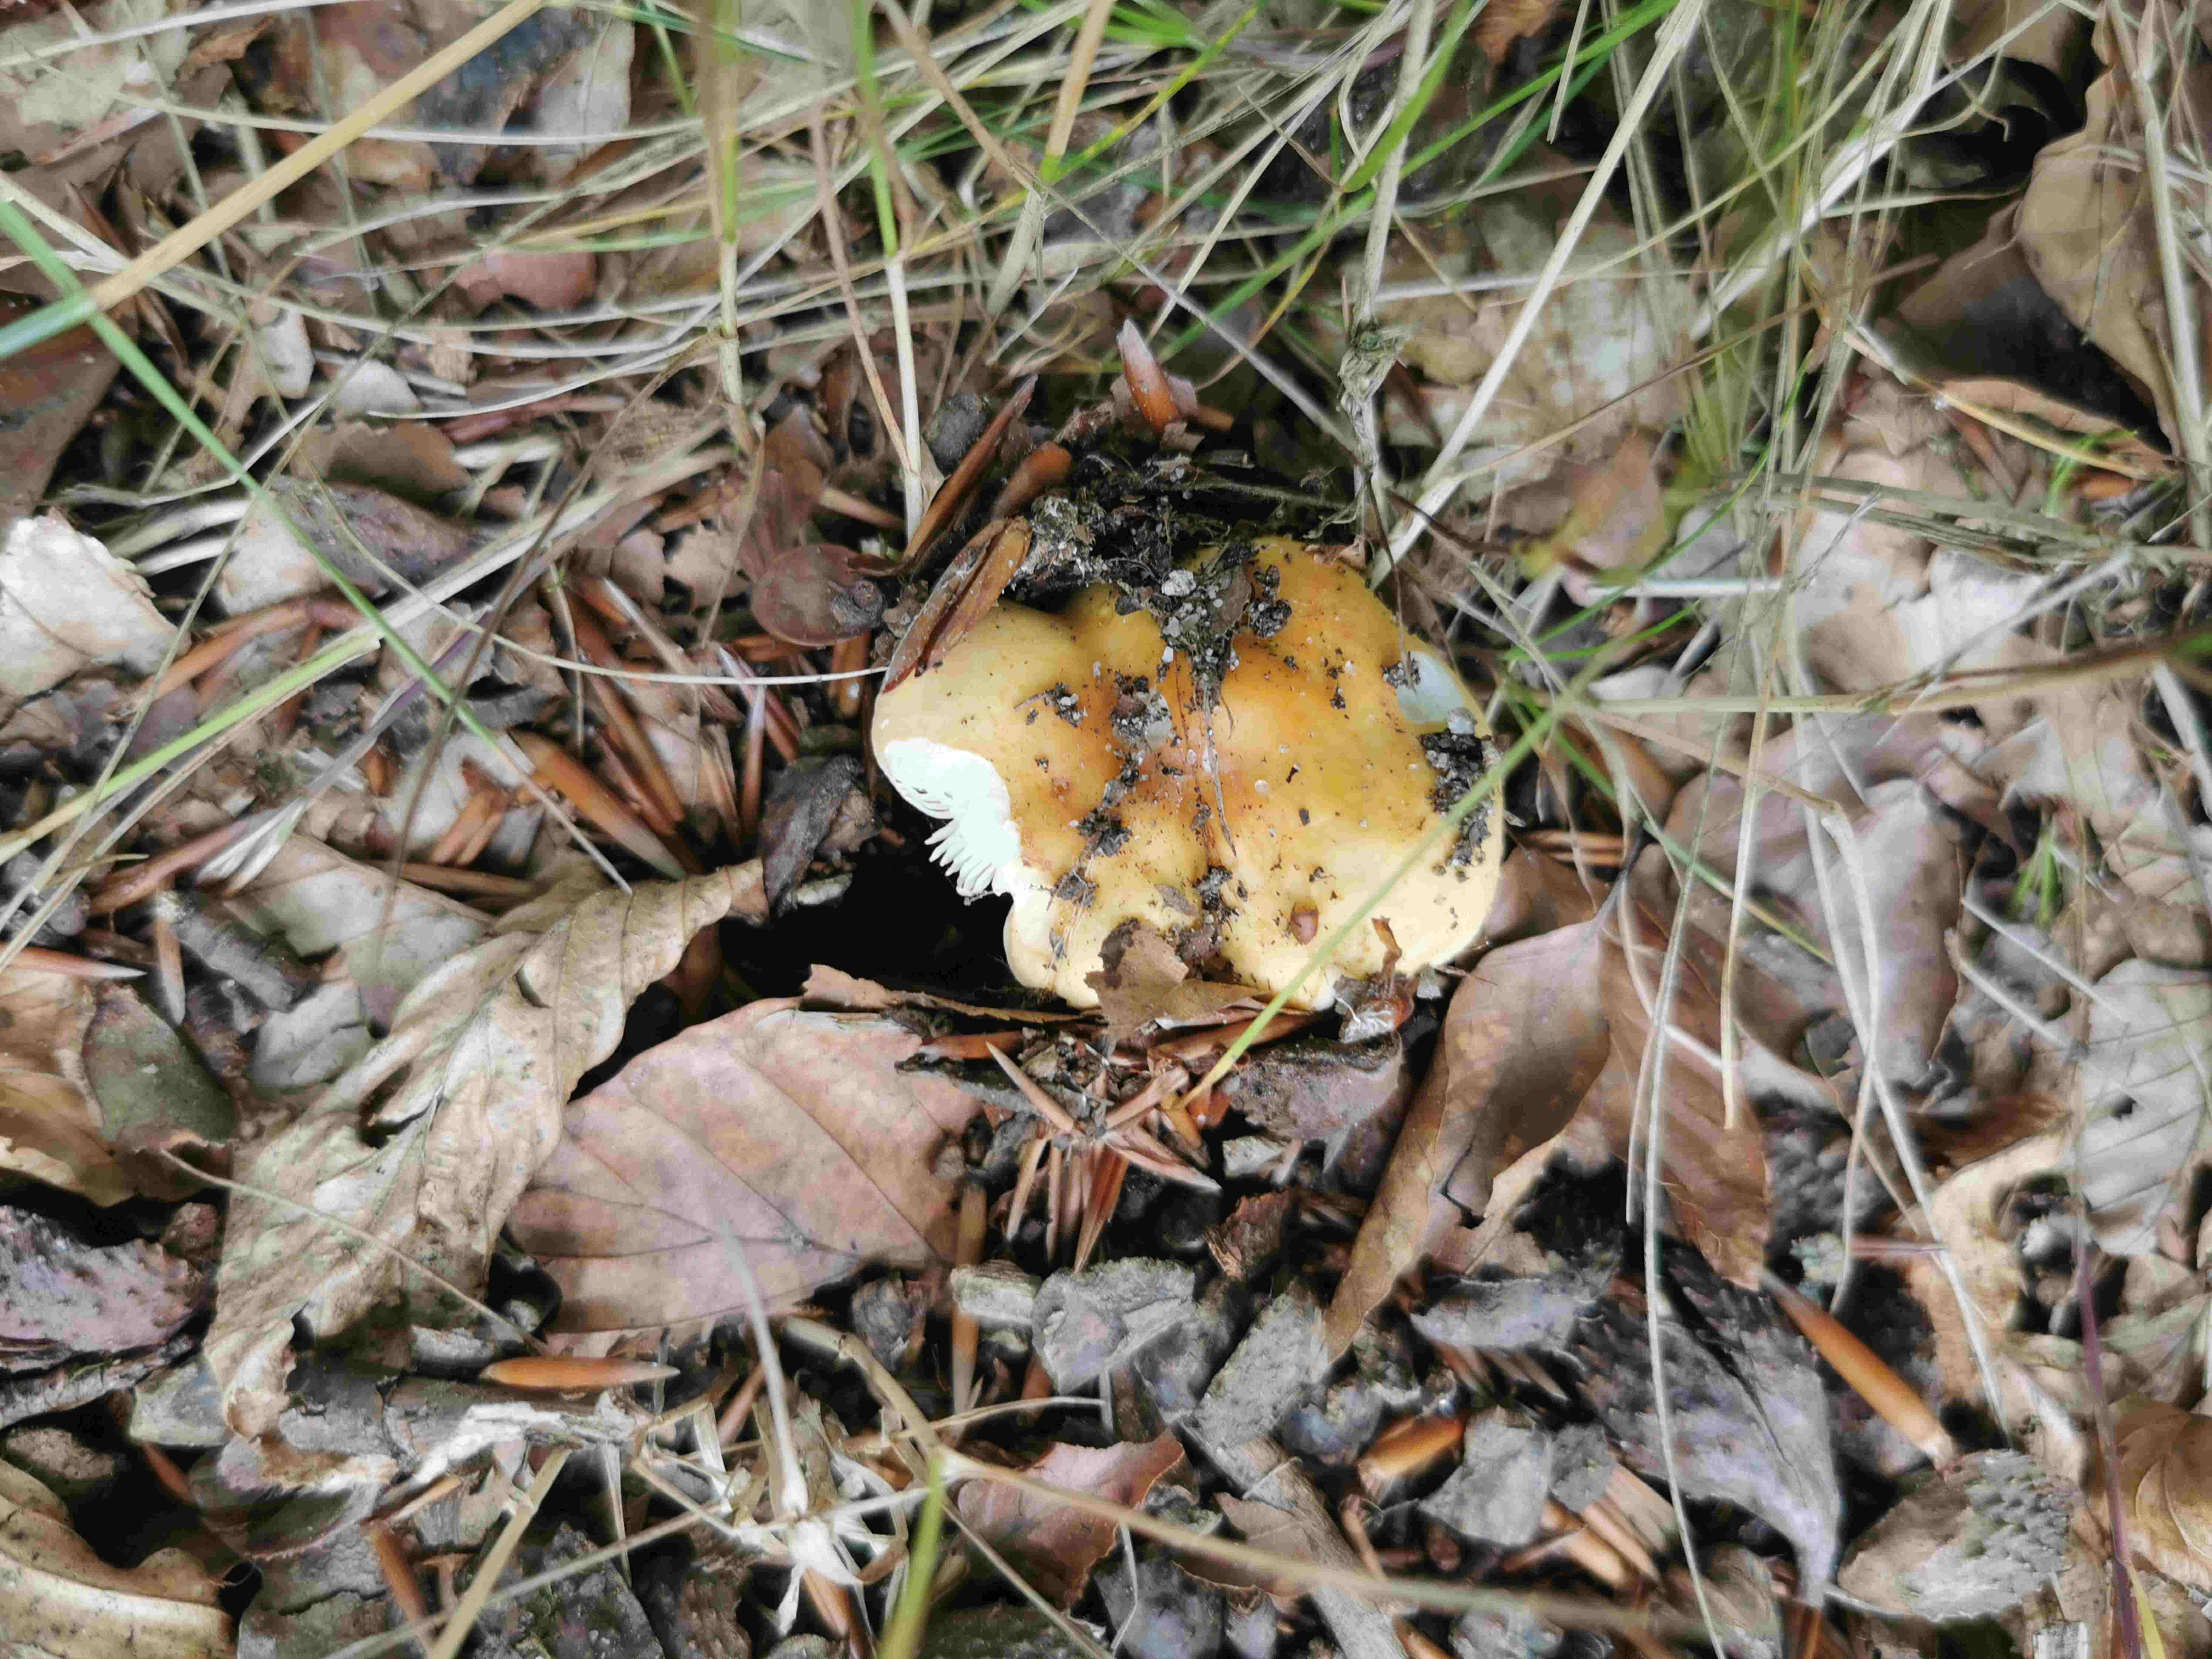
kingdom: Fungi
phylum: Basidiomycota
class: Agaricomycetes
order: Russulales
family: Russulaceae
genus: Russula
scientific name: Russula
